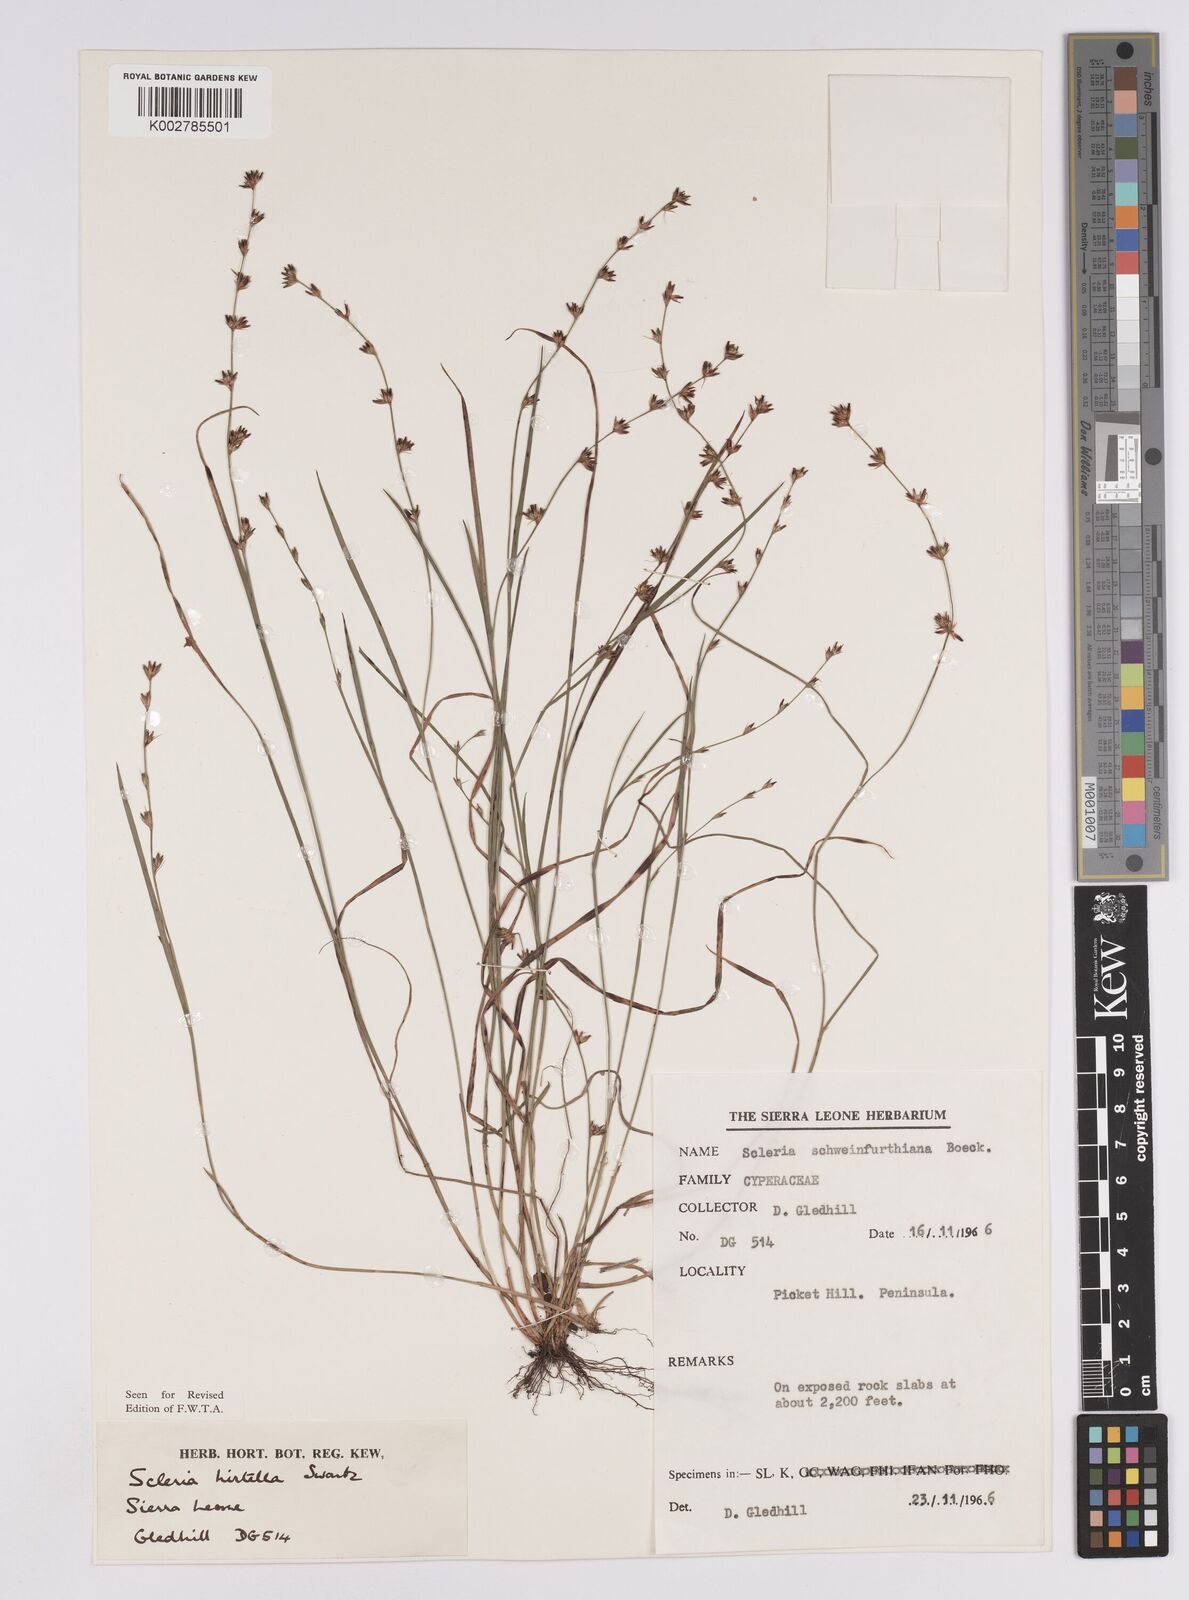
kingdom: Plantae
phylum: Tracheophyta
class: Liliopsida
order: Poales
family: Cyperaceae
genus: Scleria
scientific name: Scleria tricholepis
